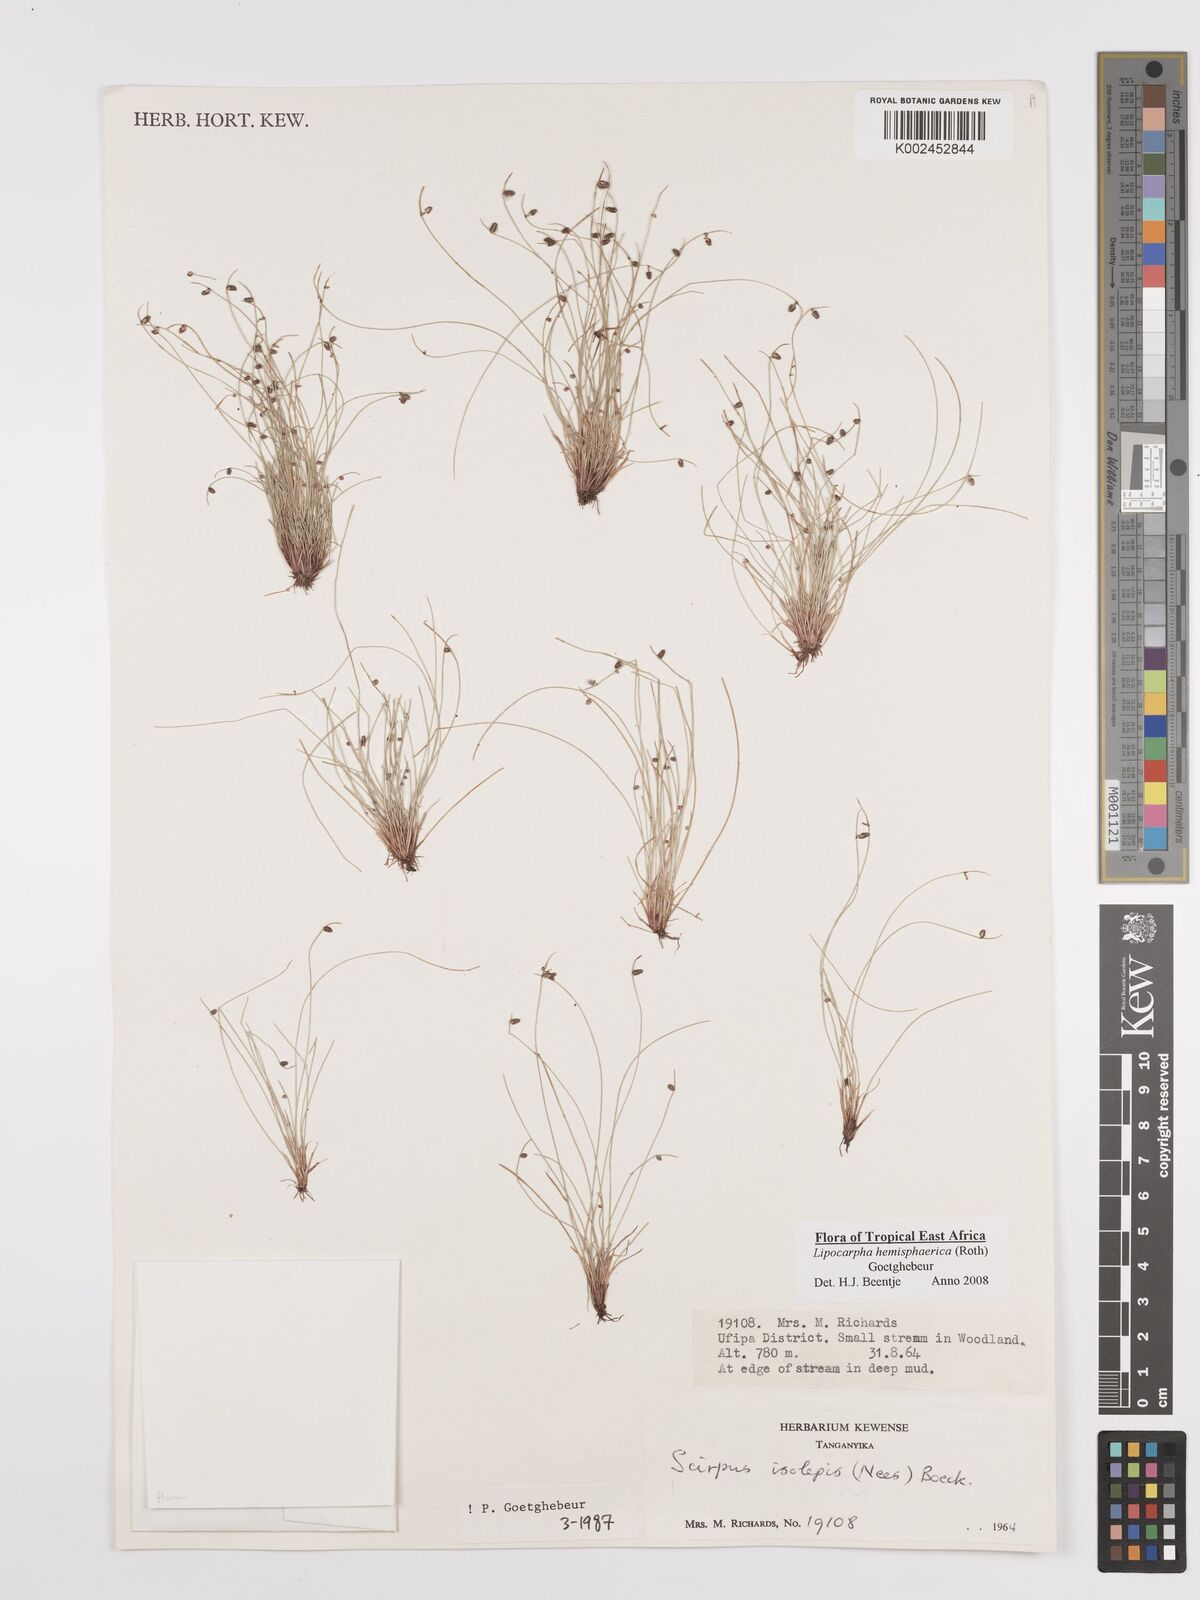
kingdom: Plantae
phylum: Tracheophyta
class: Liliopsida
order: Poales
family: Cyperaceae
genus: Cyperus
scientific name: Cyperus hemisphaericus
